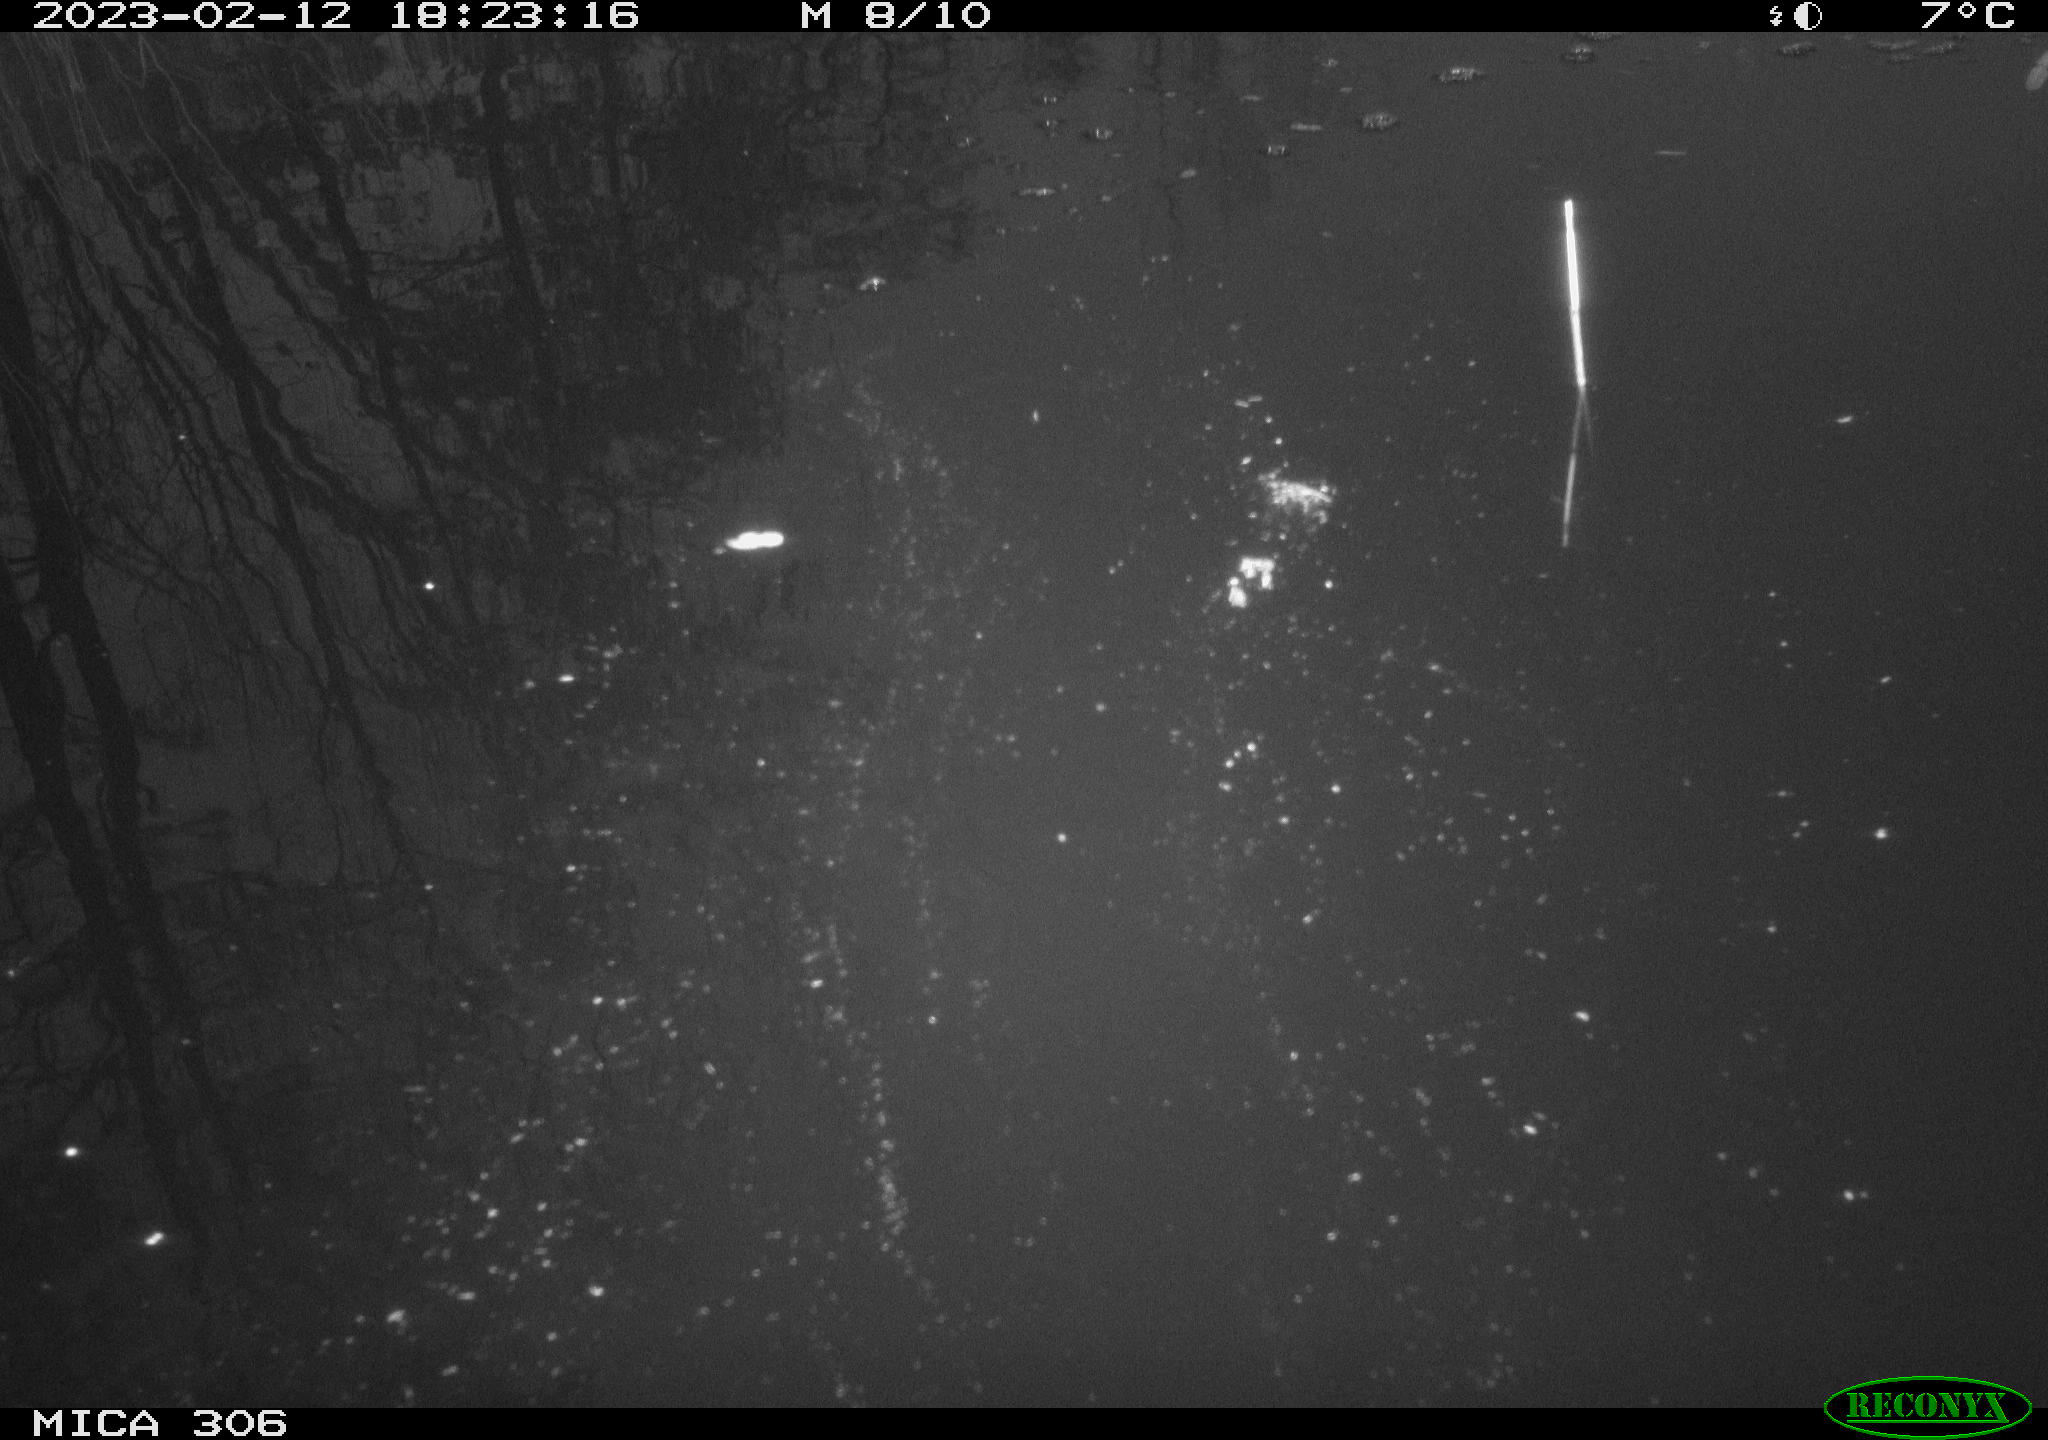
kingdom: Animalia
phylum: Chordata
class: Aves
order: Anseriformes
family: Anatidae
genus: Anas
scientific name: Anas
